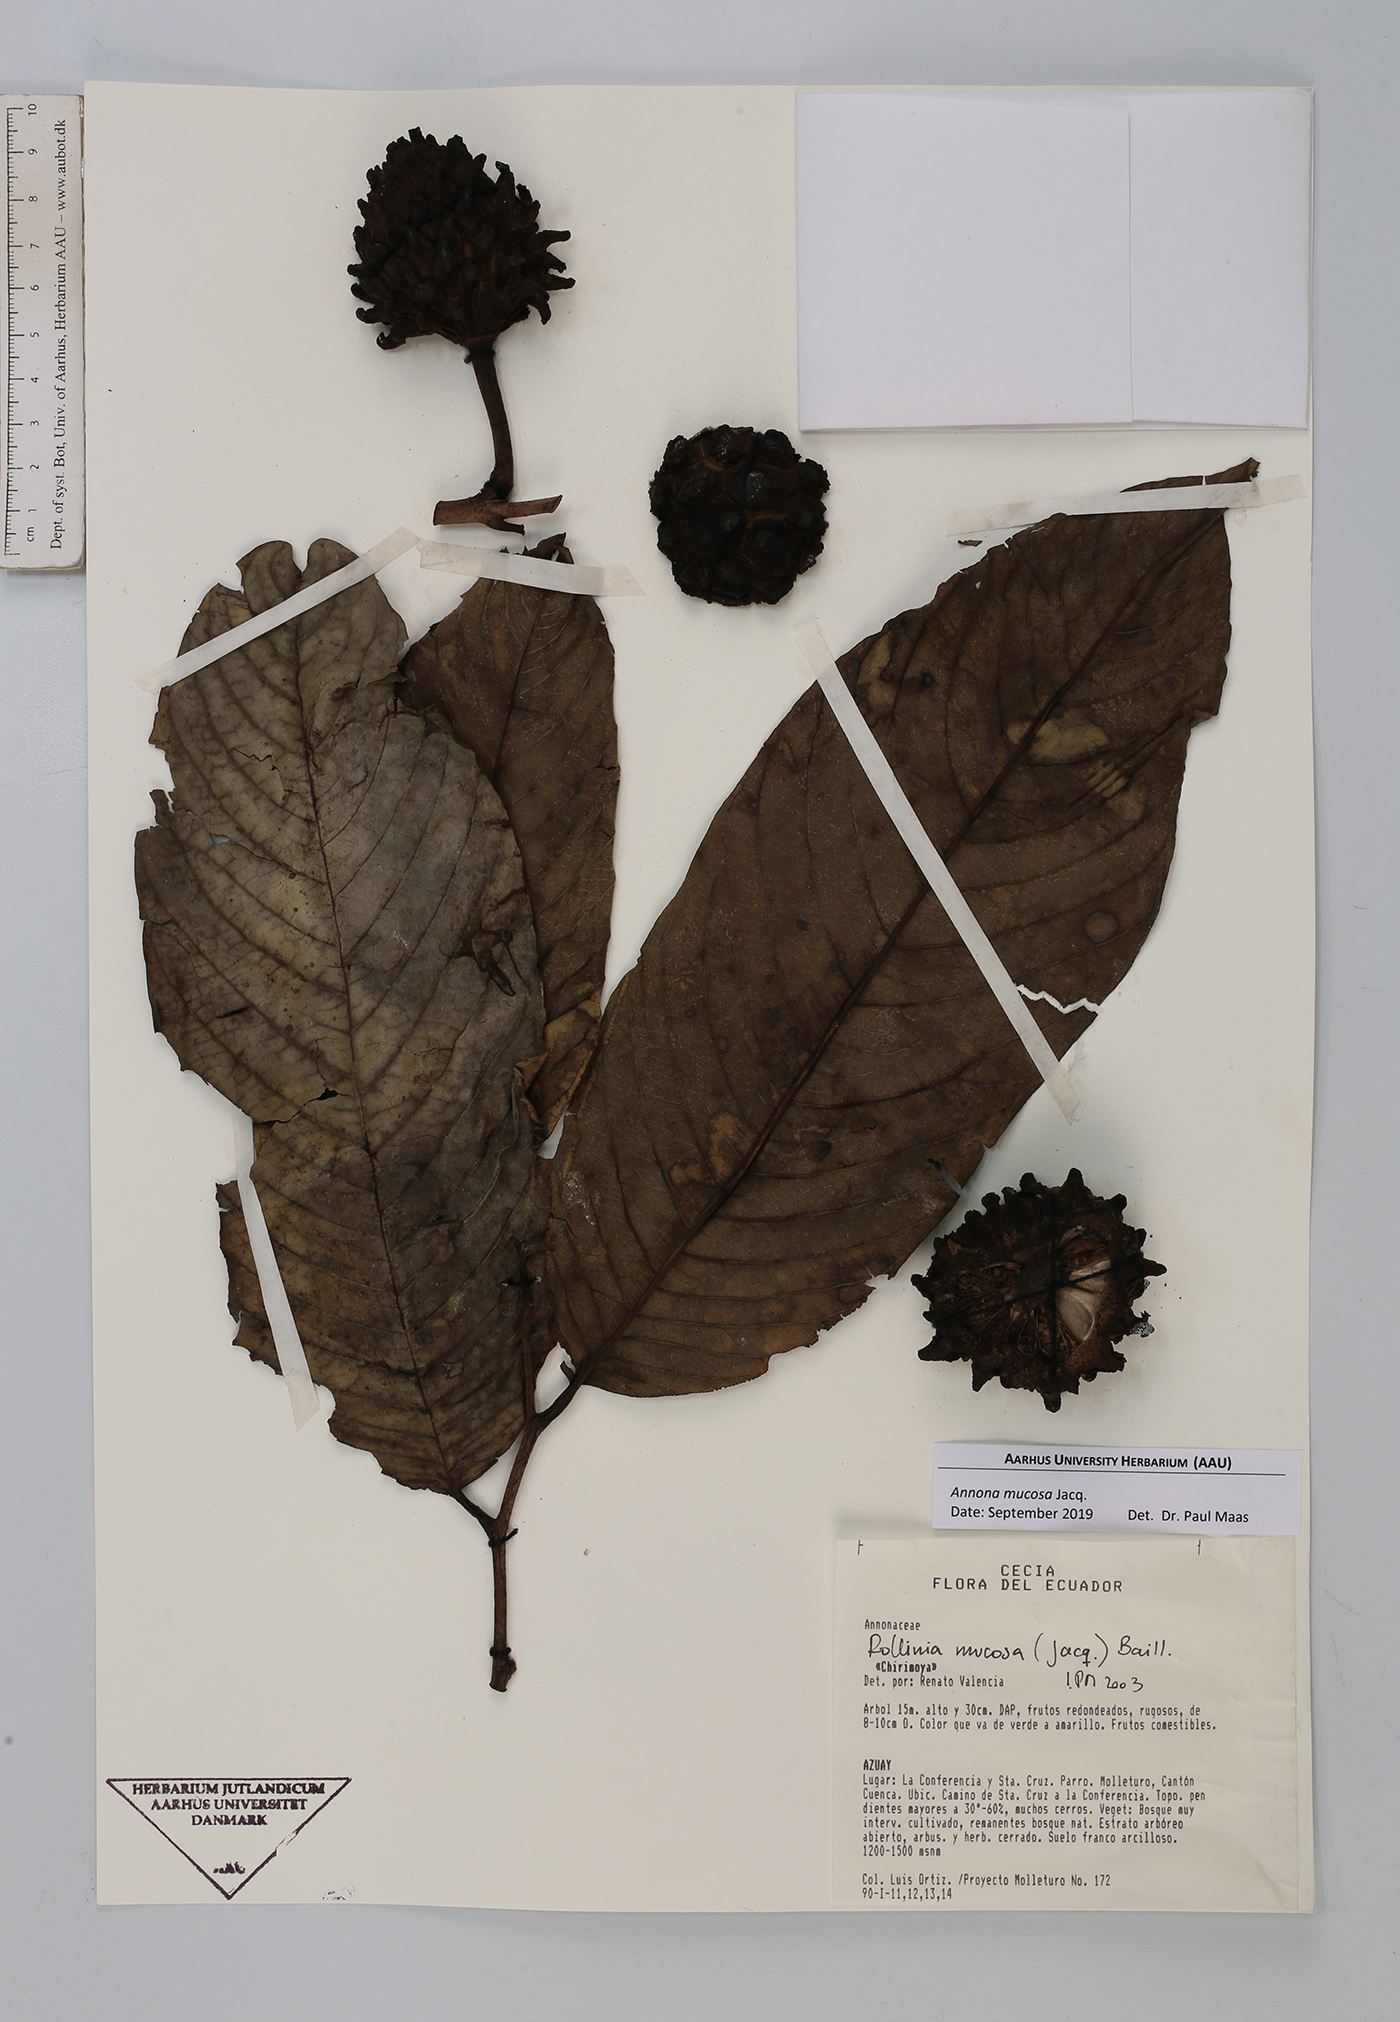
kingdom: Plantae
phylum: Tracheophyta
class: Magnoliopsida
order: Magnoliales
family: Annonaceae
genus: Annona
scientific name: Annona mucosa
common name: Sugar apple
